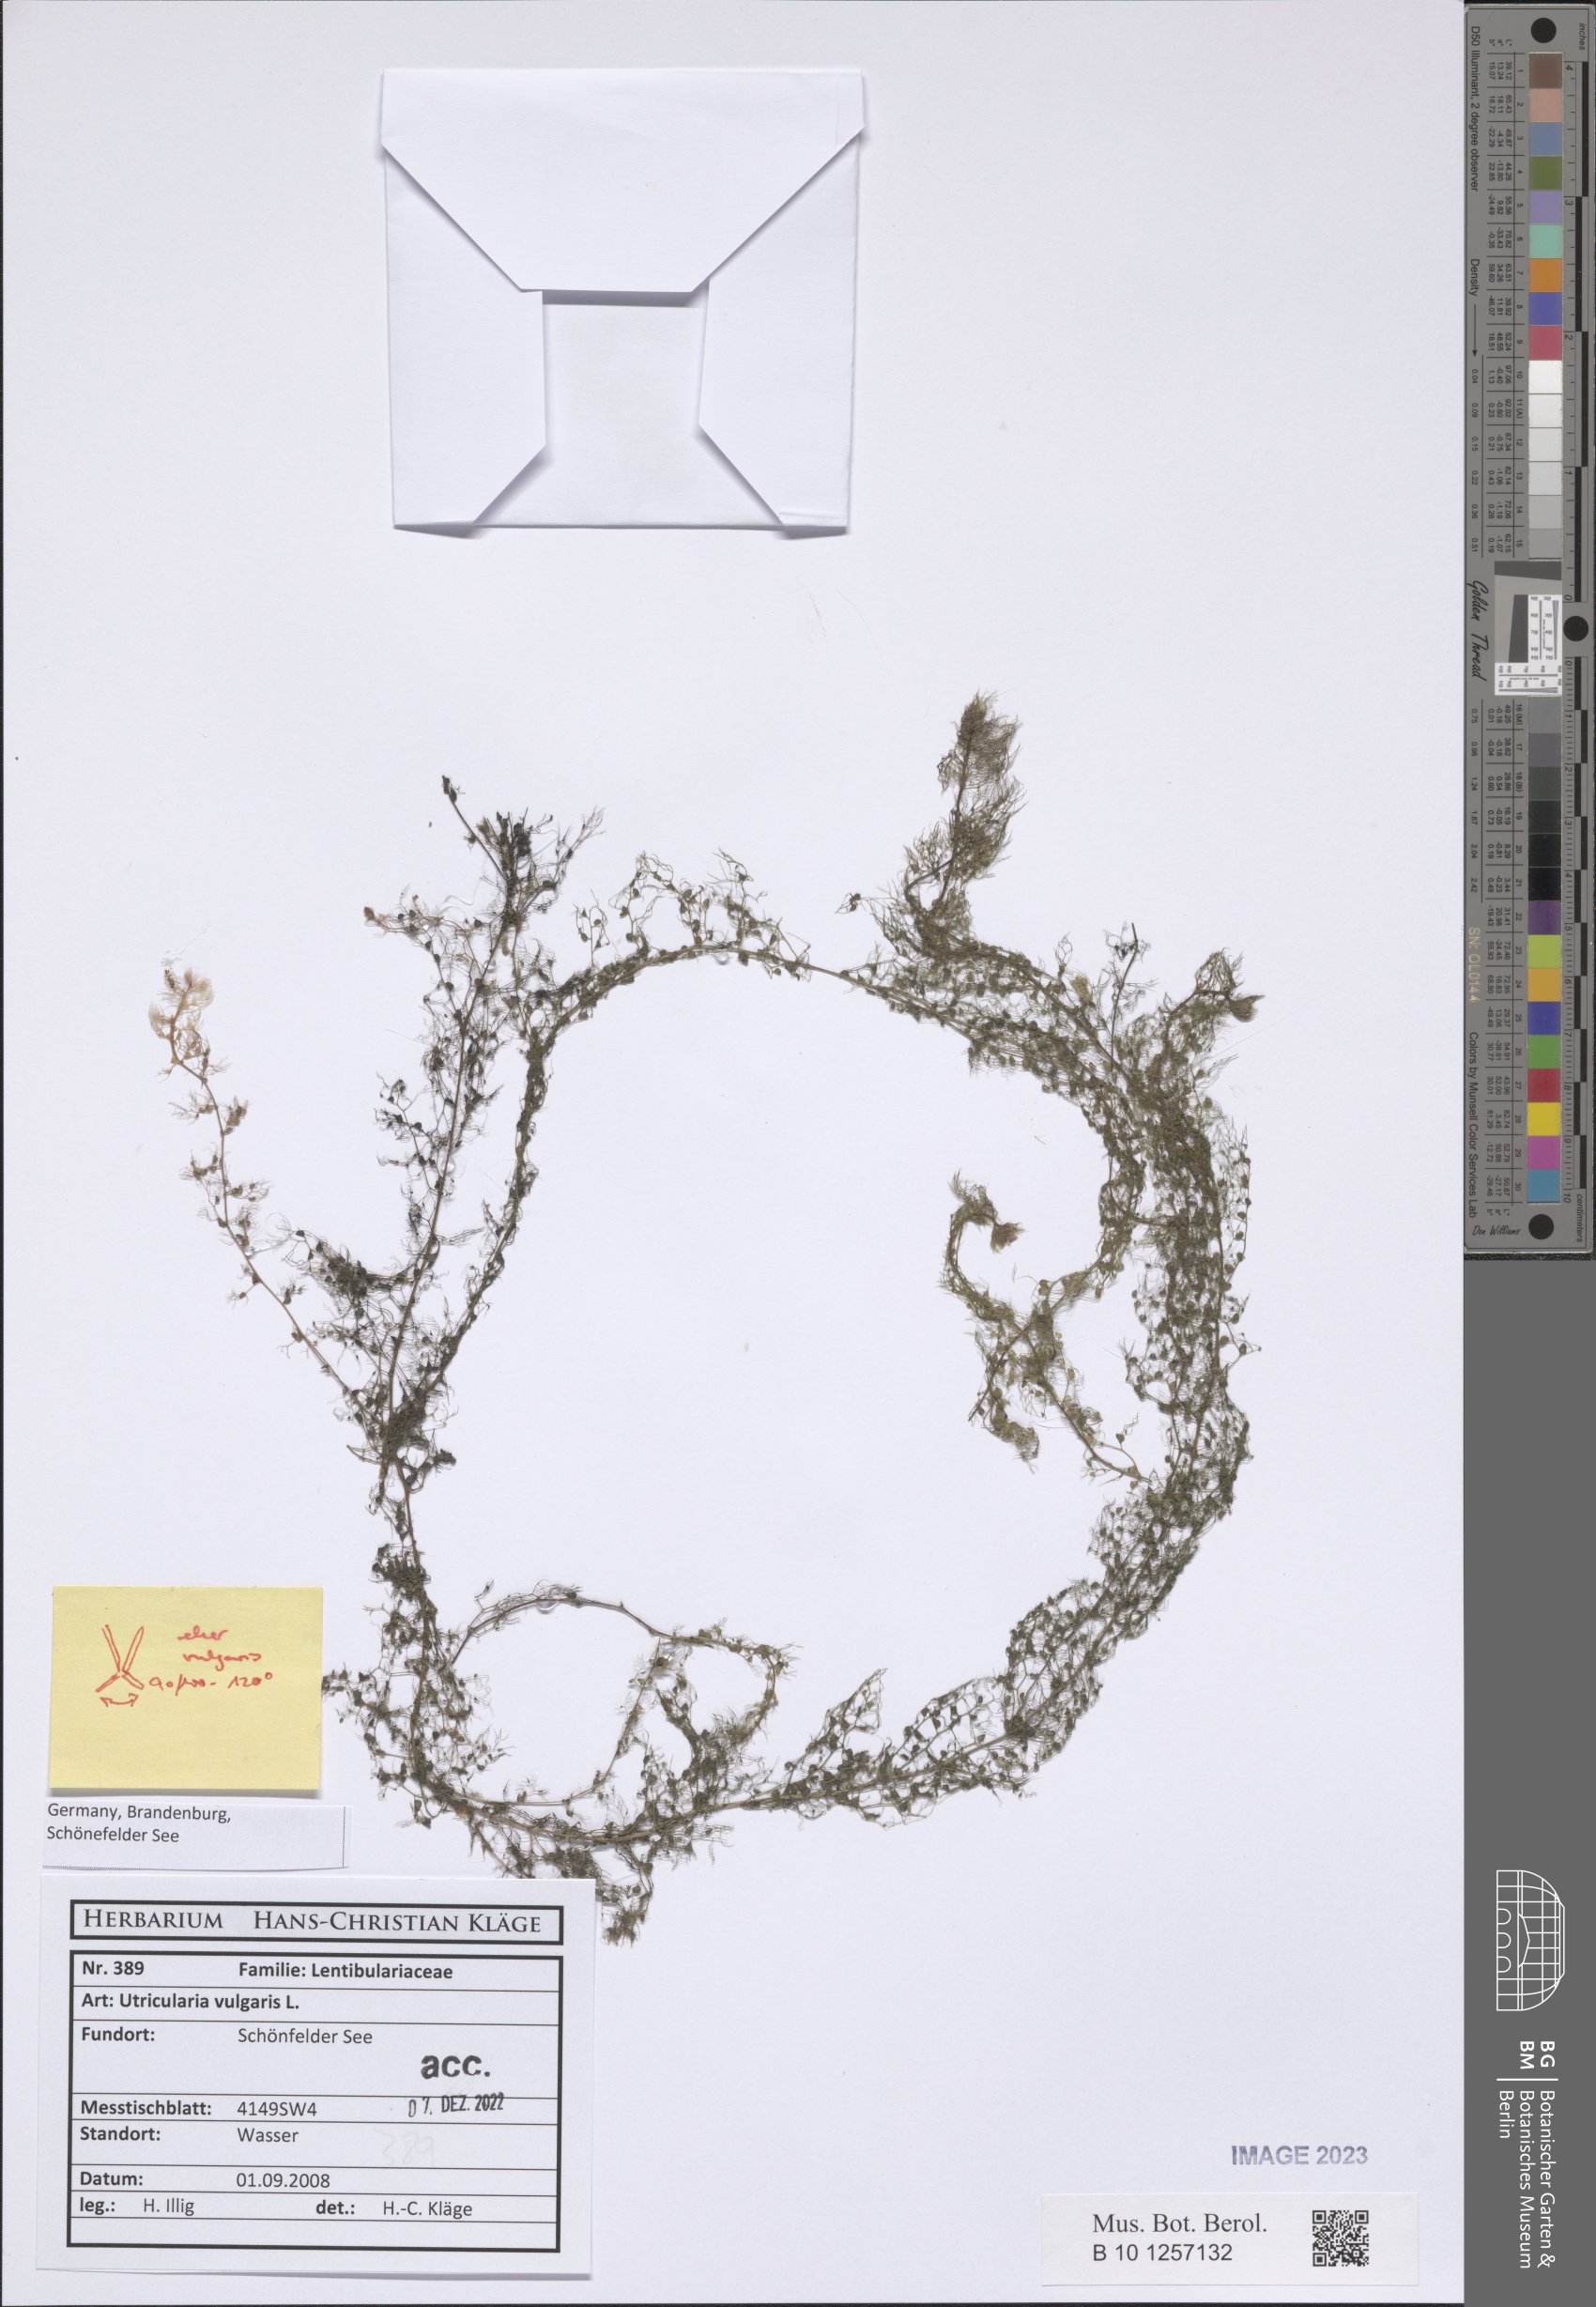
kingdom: Plantae
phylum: Tracheophyta
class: Magnoliopsida
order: Lamiales
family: Lentibulariaceae
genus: Utricularia
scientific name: Utricularia vulgaris
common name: Greater bladderwort
